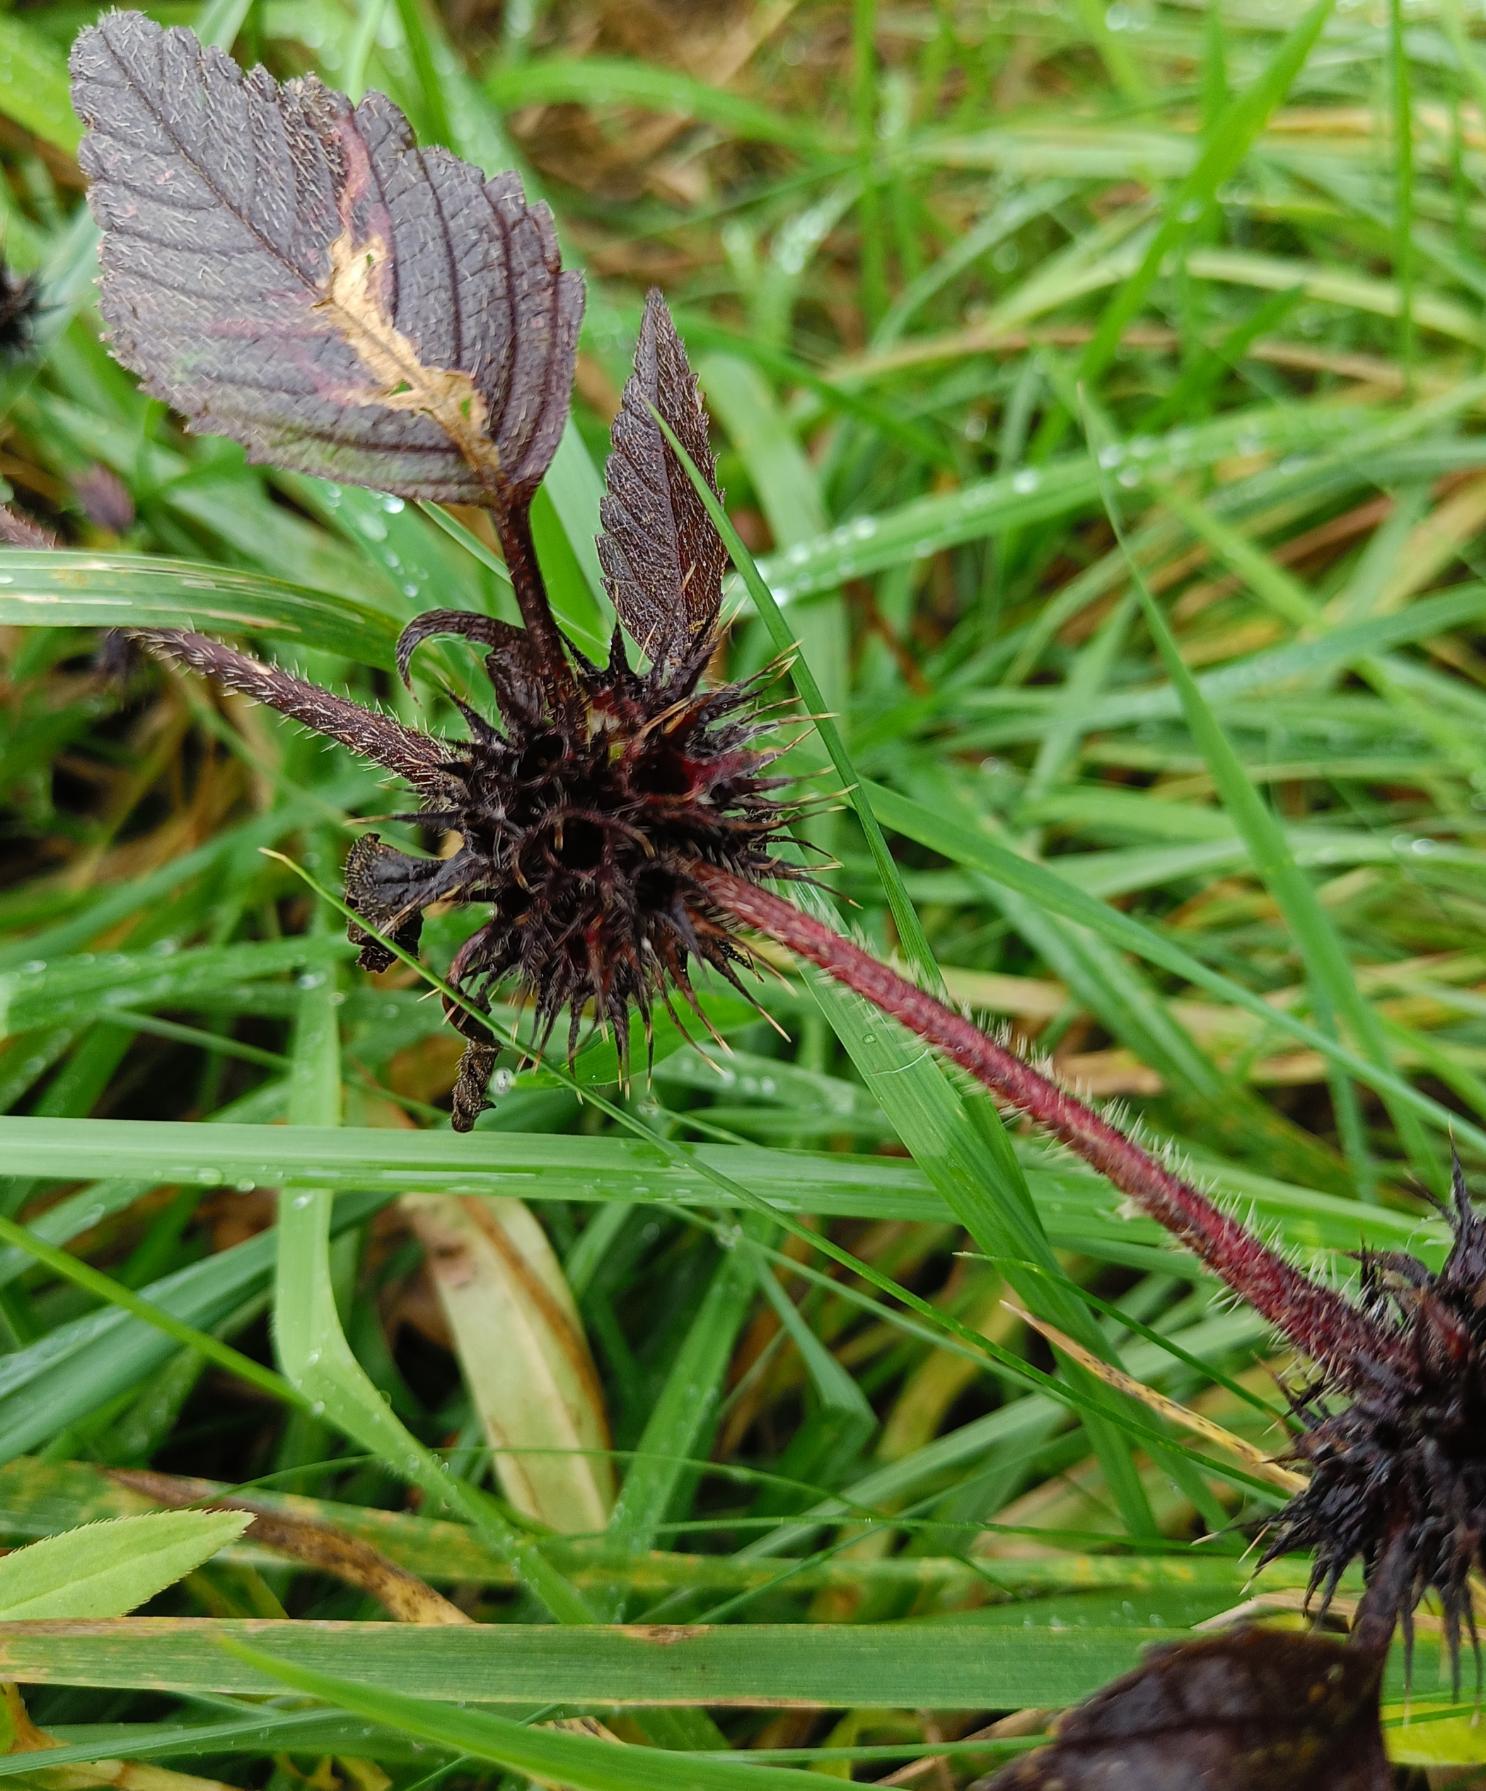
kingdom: Plantae
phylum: Tracheophyta
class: Magnoliopsida
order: Lamiales
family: Lamiaceae
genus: Galeopsis
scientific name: Galeopsis
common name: Hanekroslægten
